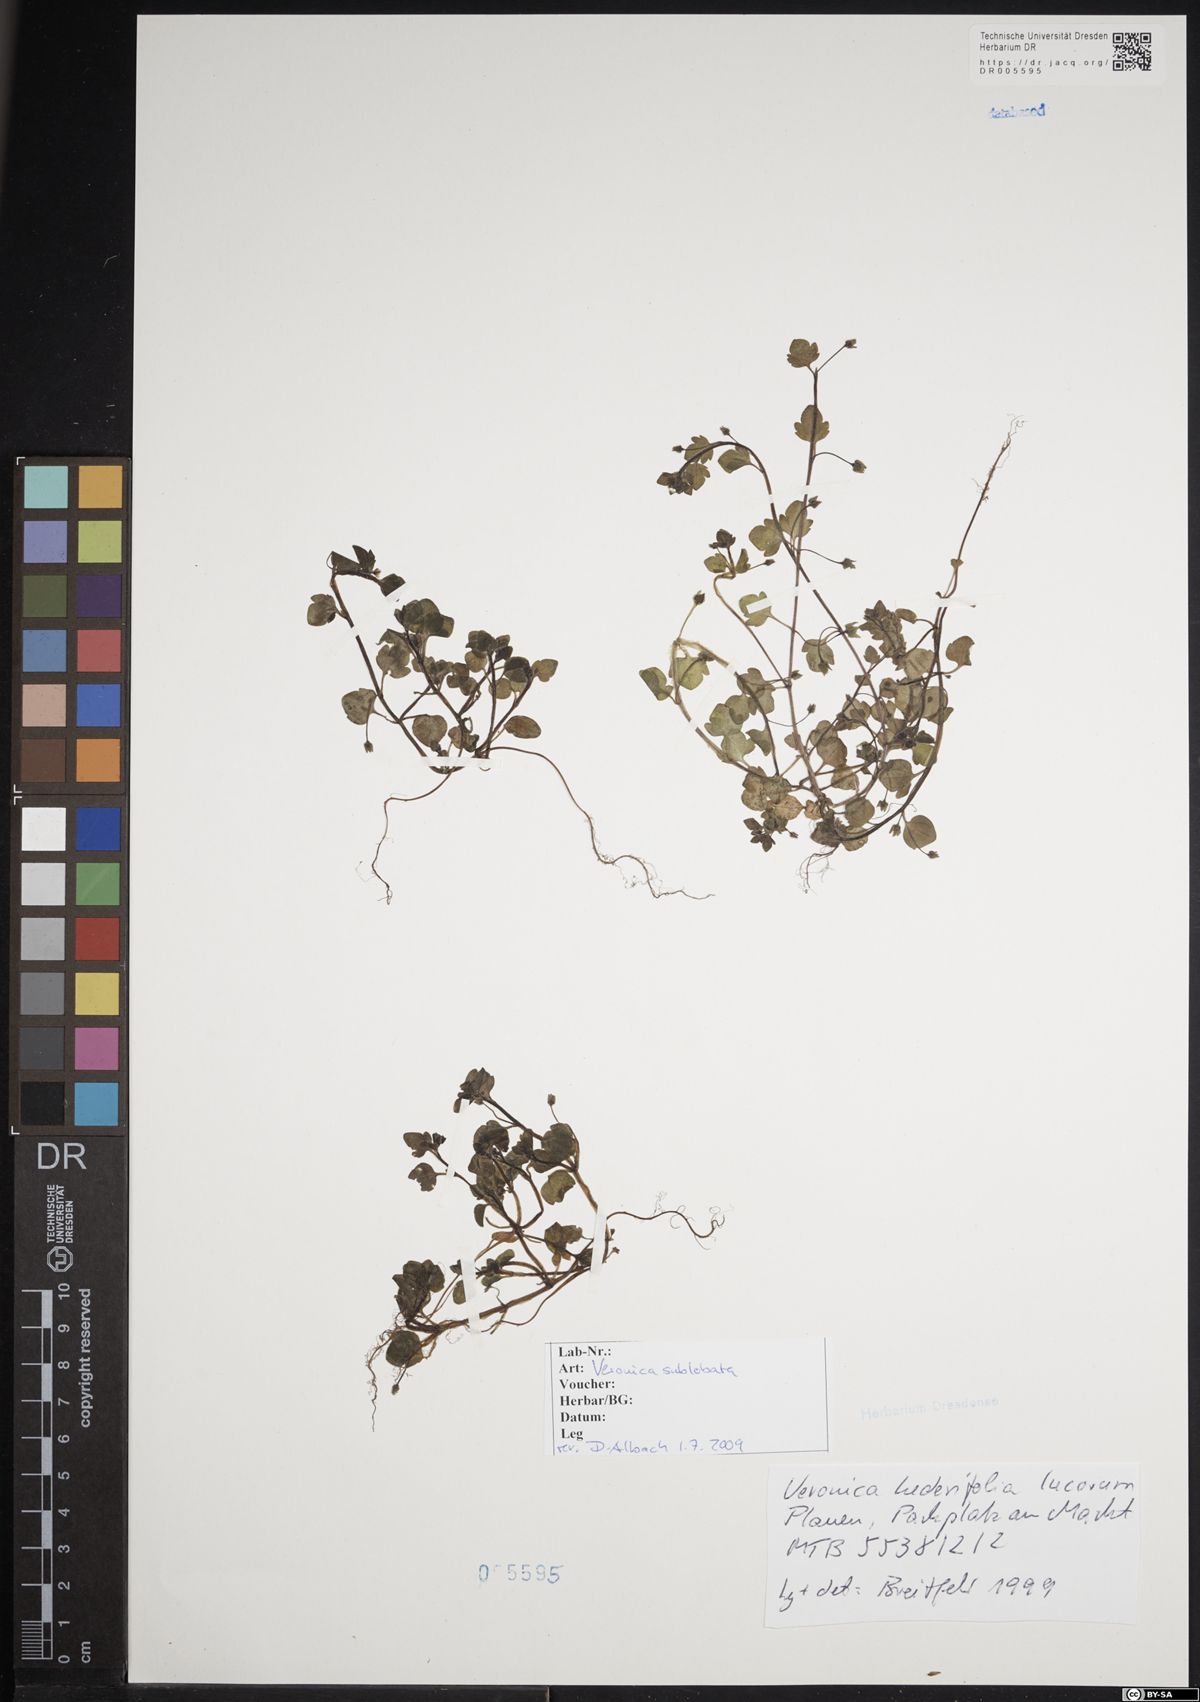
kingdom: Plantae
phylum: Tracheophyta
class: Magnoliopsida
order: Lamiales
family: Plantaginaceae
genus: Veronica
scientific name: Veronica sublobata
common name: False ivy-leaved speedwell
